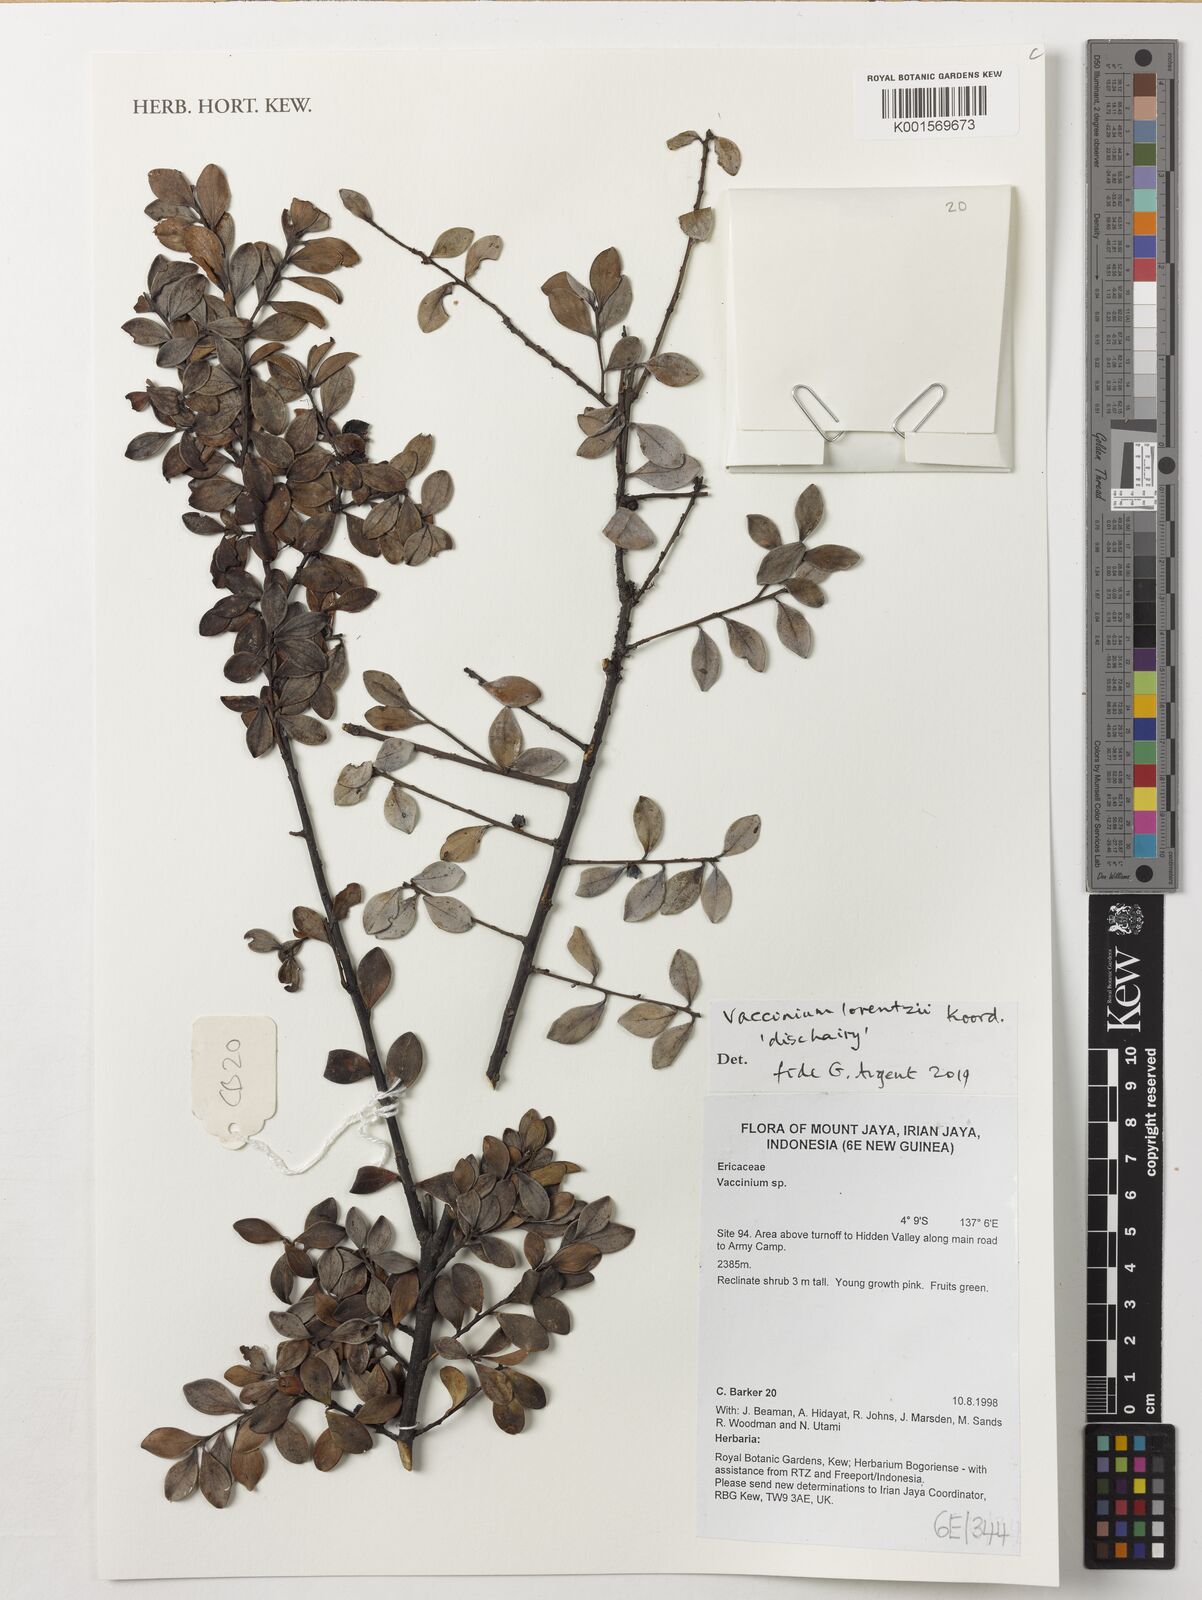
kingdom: Plantae
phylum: Tracheophyta
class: Magnoliopsida
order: Ericales
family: Ericaceae
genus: Vaccinium
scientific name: Vaccinium lorentzii
